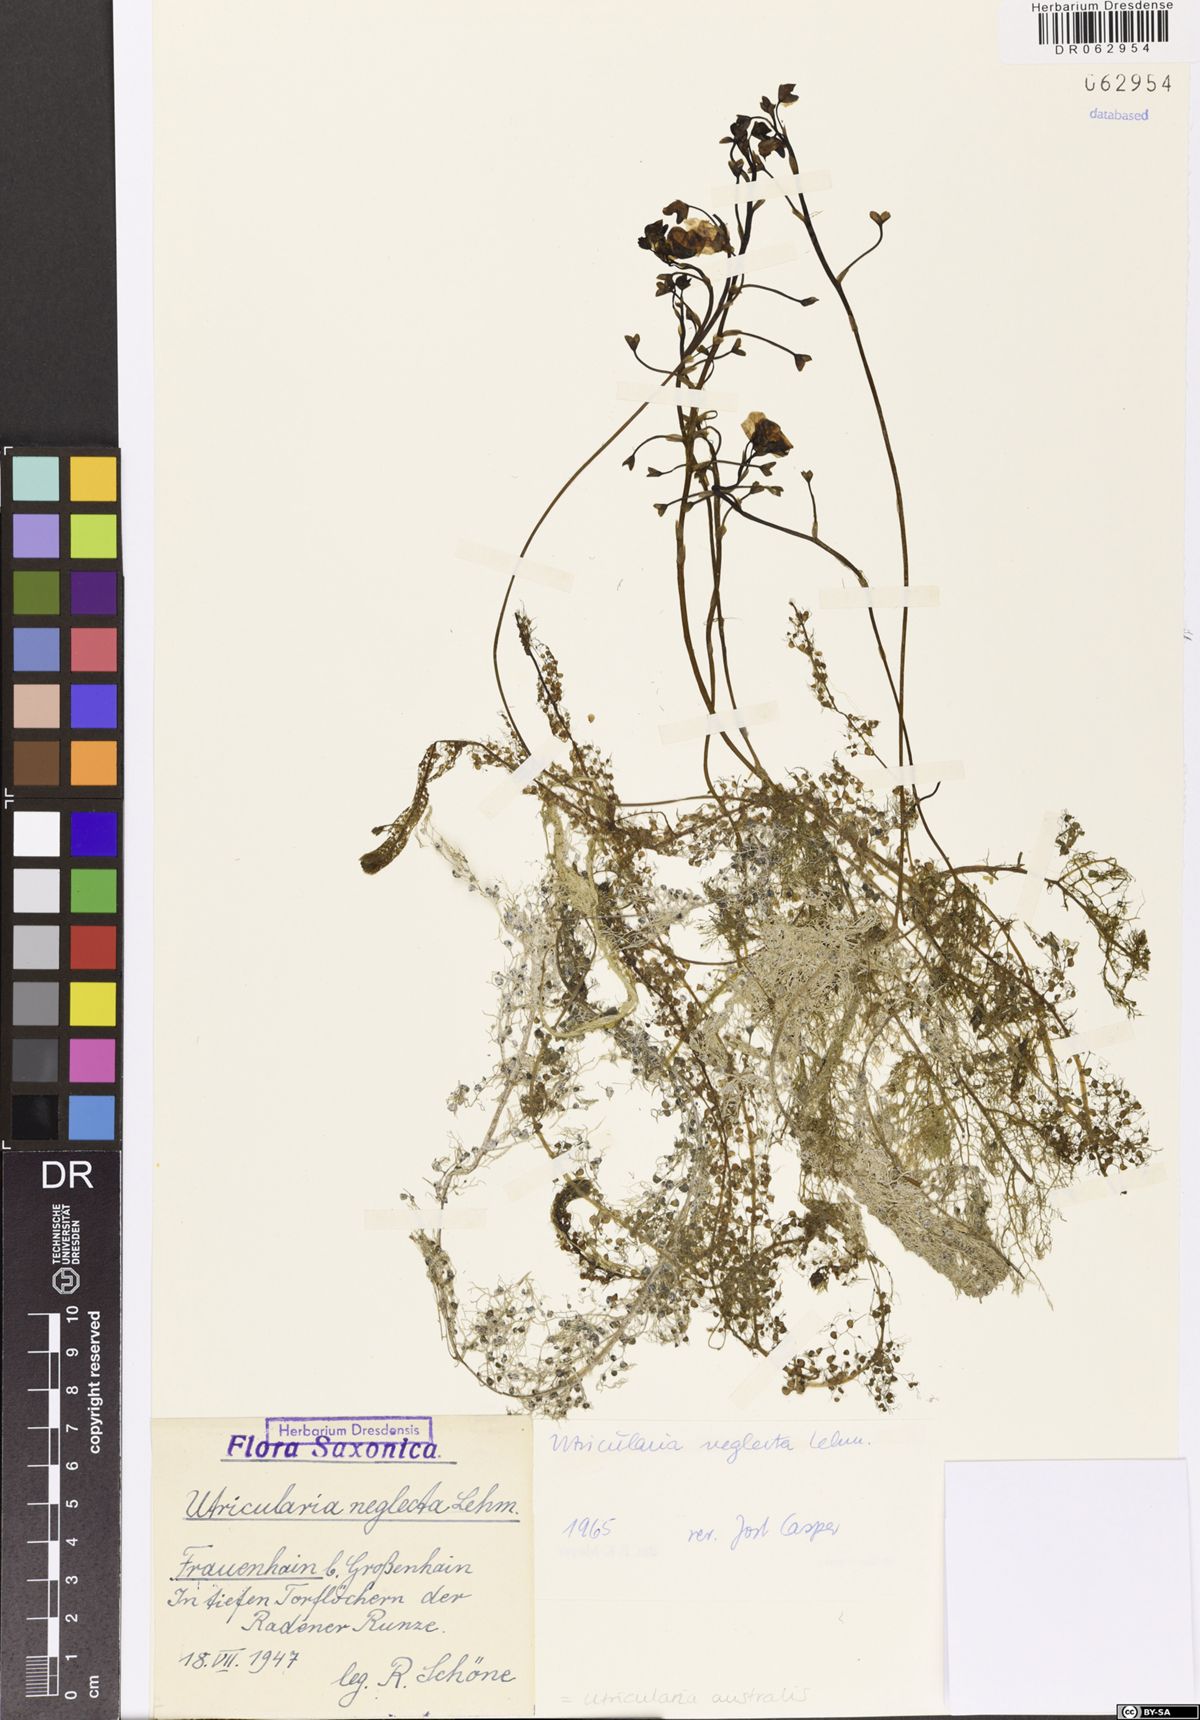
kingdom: Plantae
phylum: Tracheophyta
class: Magnoliopsida
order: Lamiales
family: Lentibulariaceae
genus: Utricularia
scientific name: Utricularia australis
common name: Bladderwort
